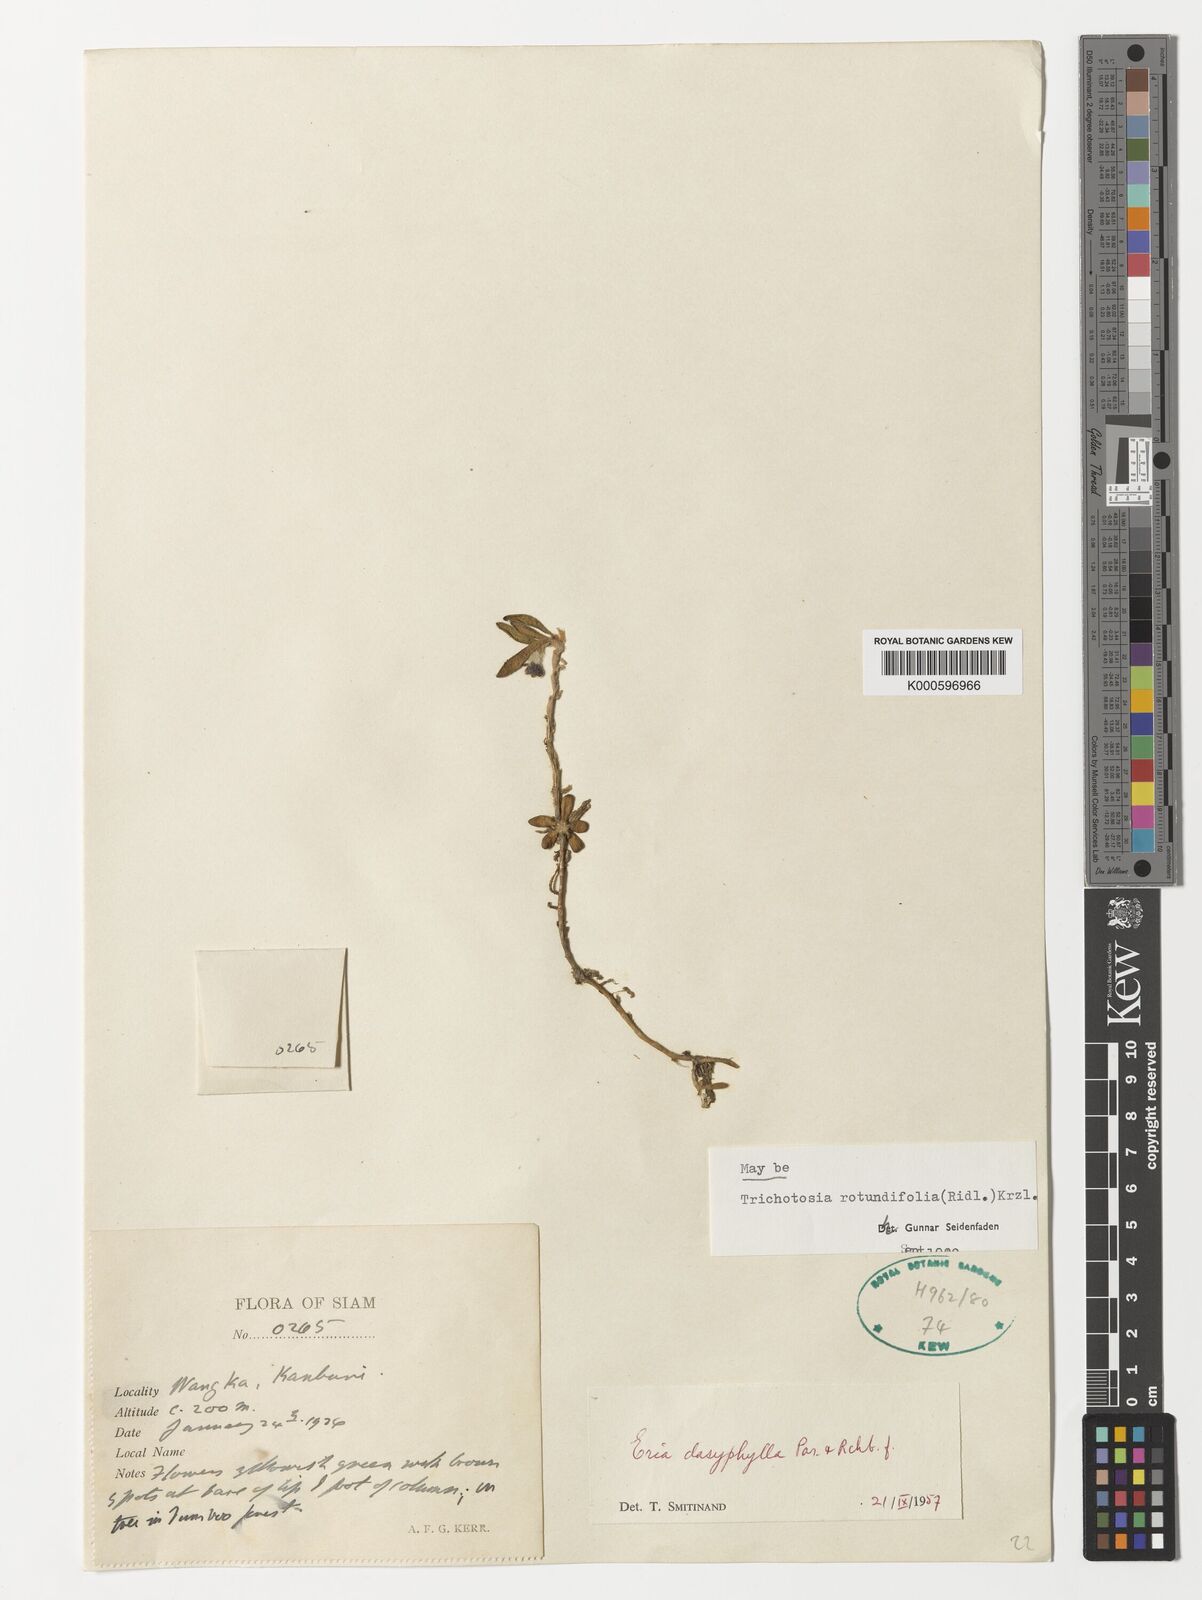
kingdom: Plantae
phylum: Tracheophyta
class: Liliopsida
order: Asparagales
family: Orchidaceae
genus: Trichotosia
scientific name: Trichotosia rotundifolia
